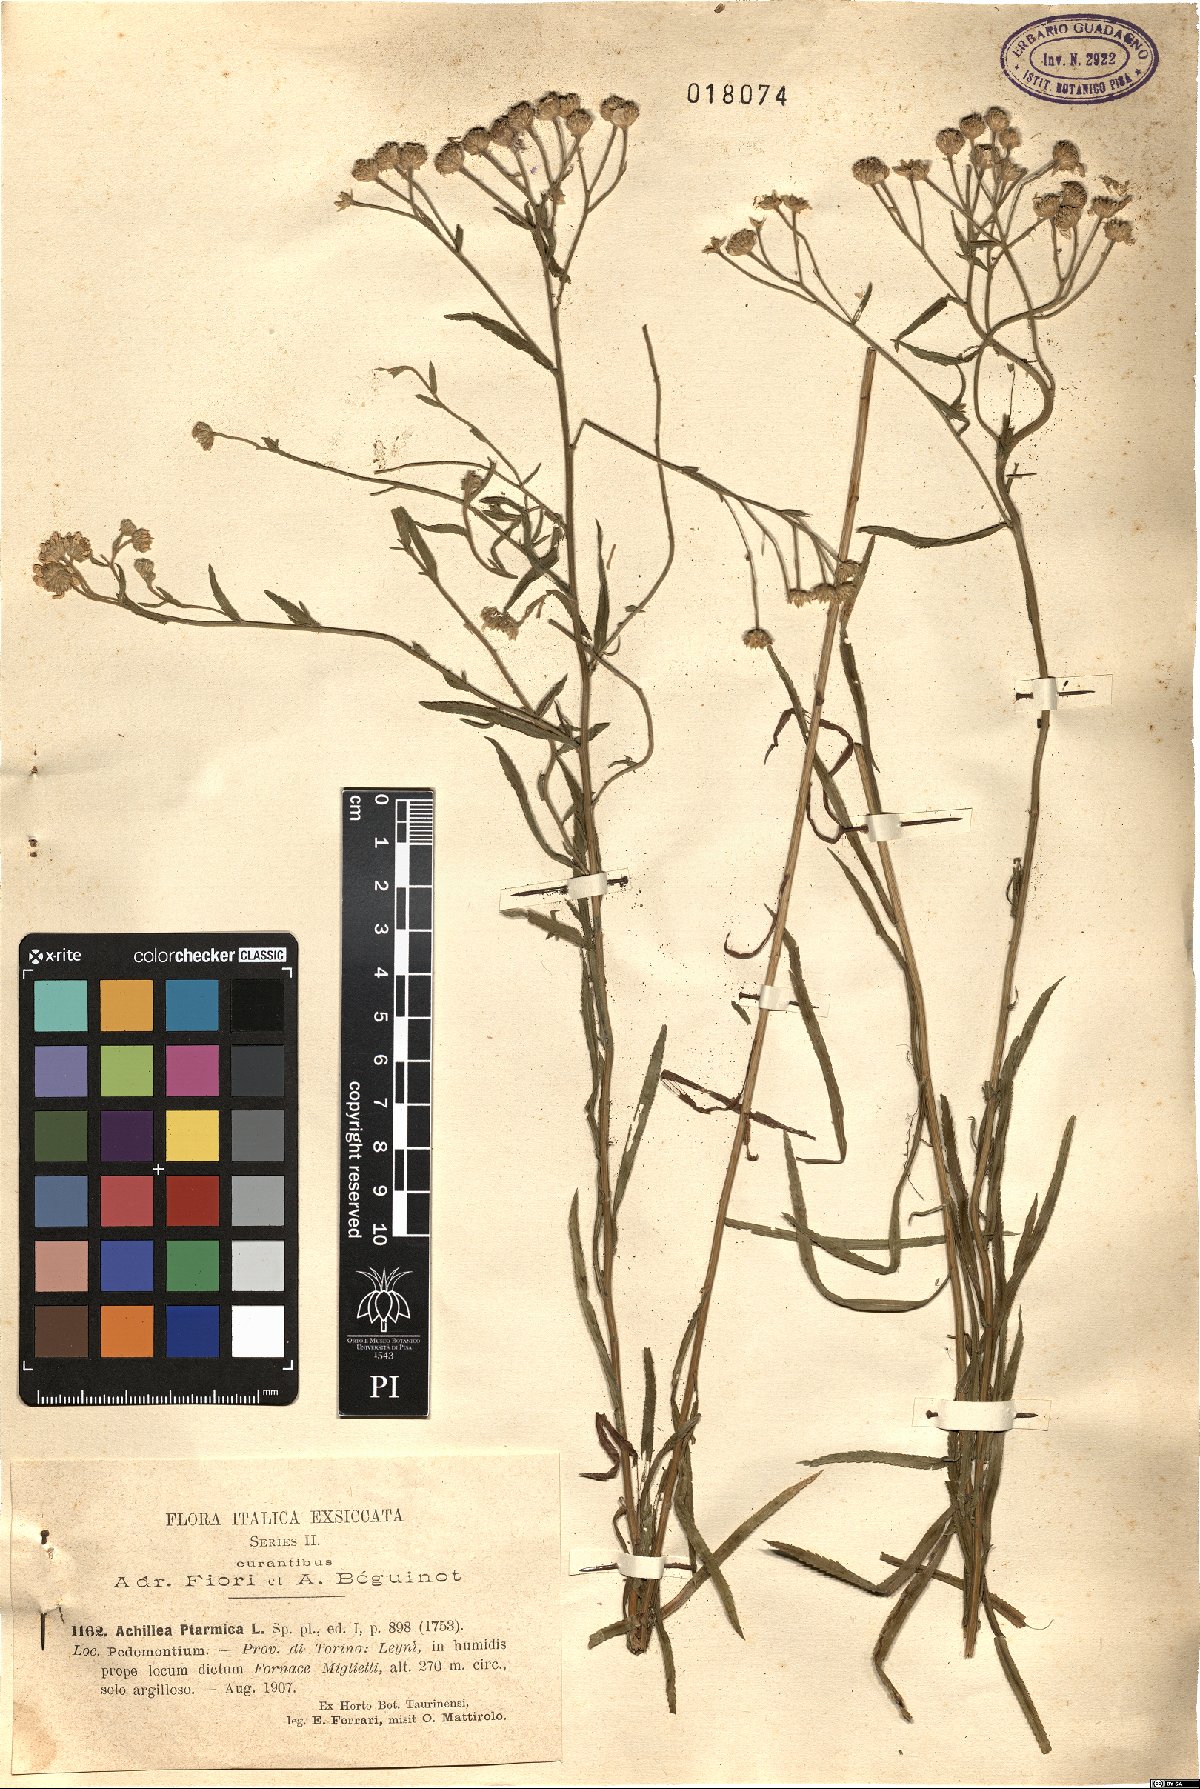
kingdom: Plantae
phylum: Tracheophyta
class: Magnoliopsida
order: Asterales
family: Asteraceae
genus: Achillea
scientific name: Achillea ptarmica
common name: Sneezeweed
